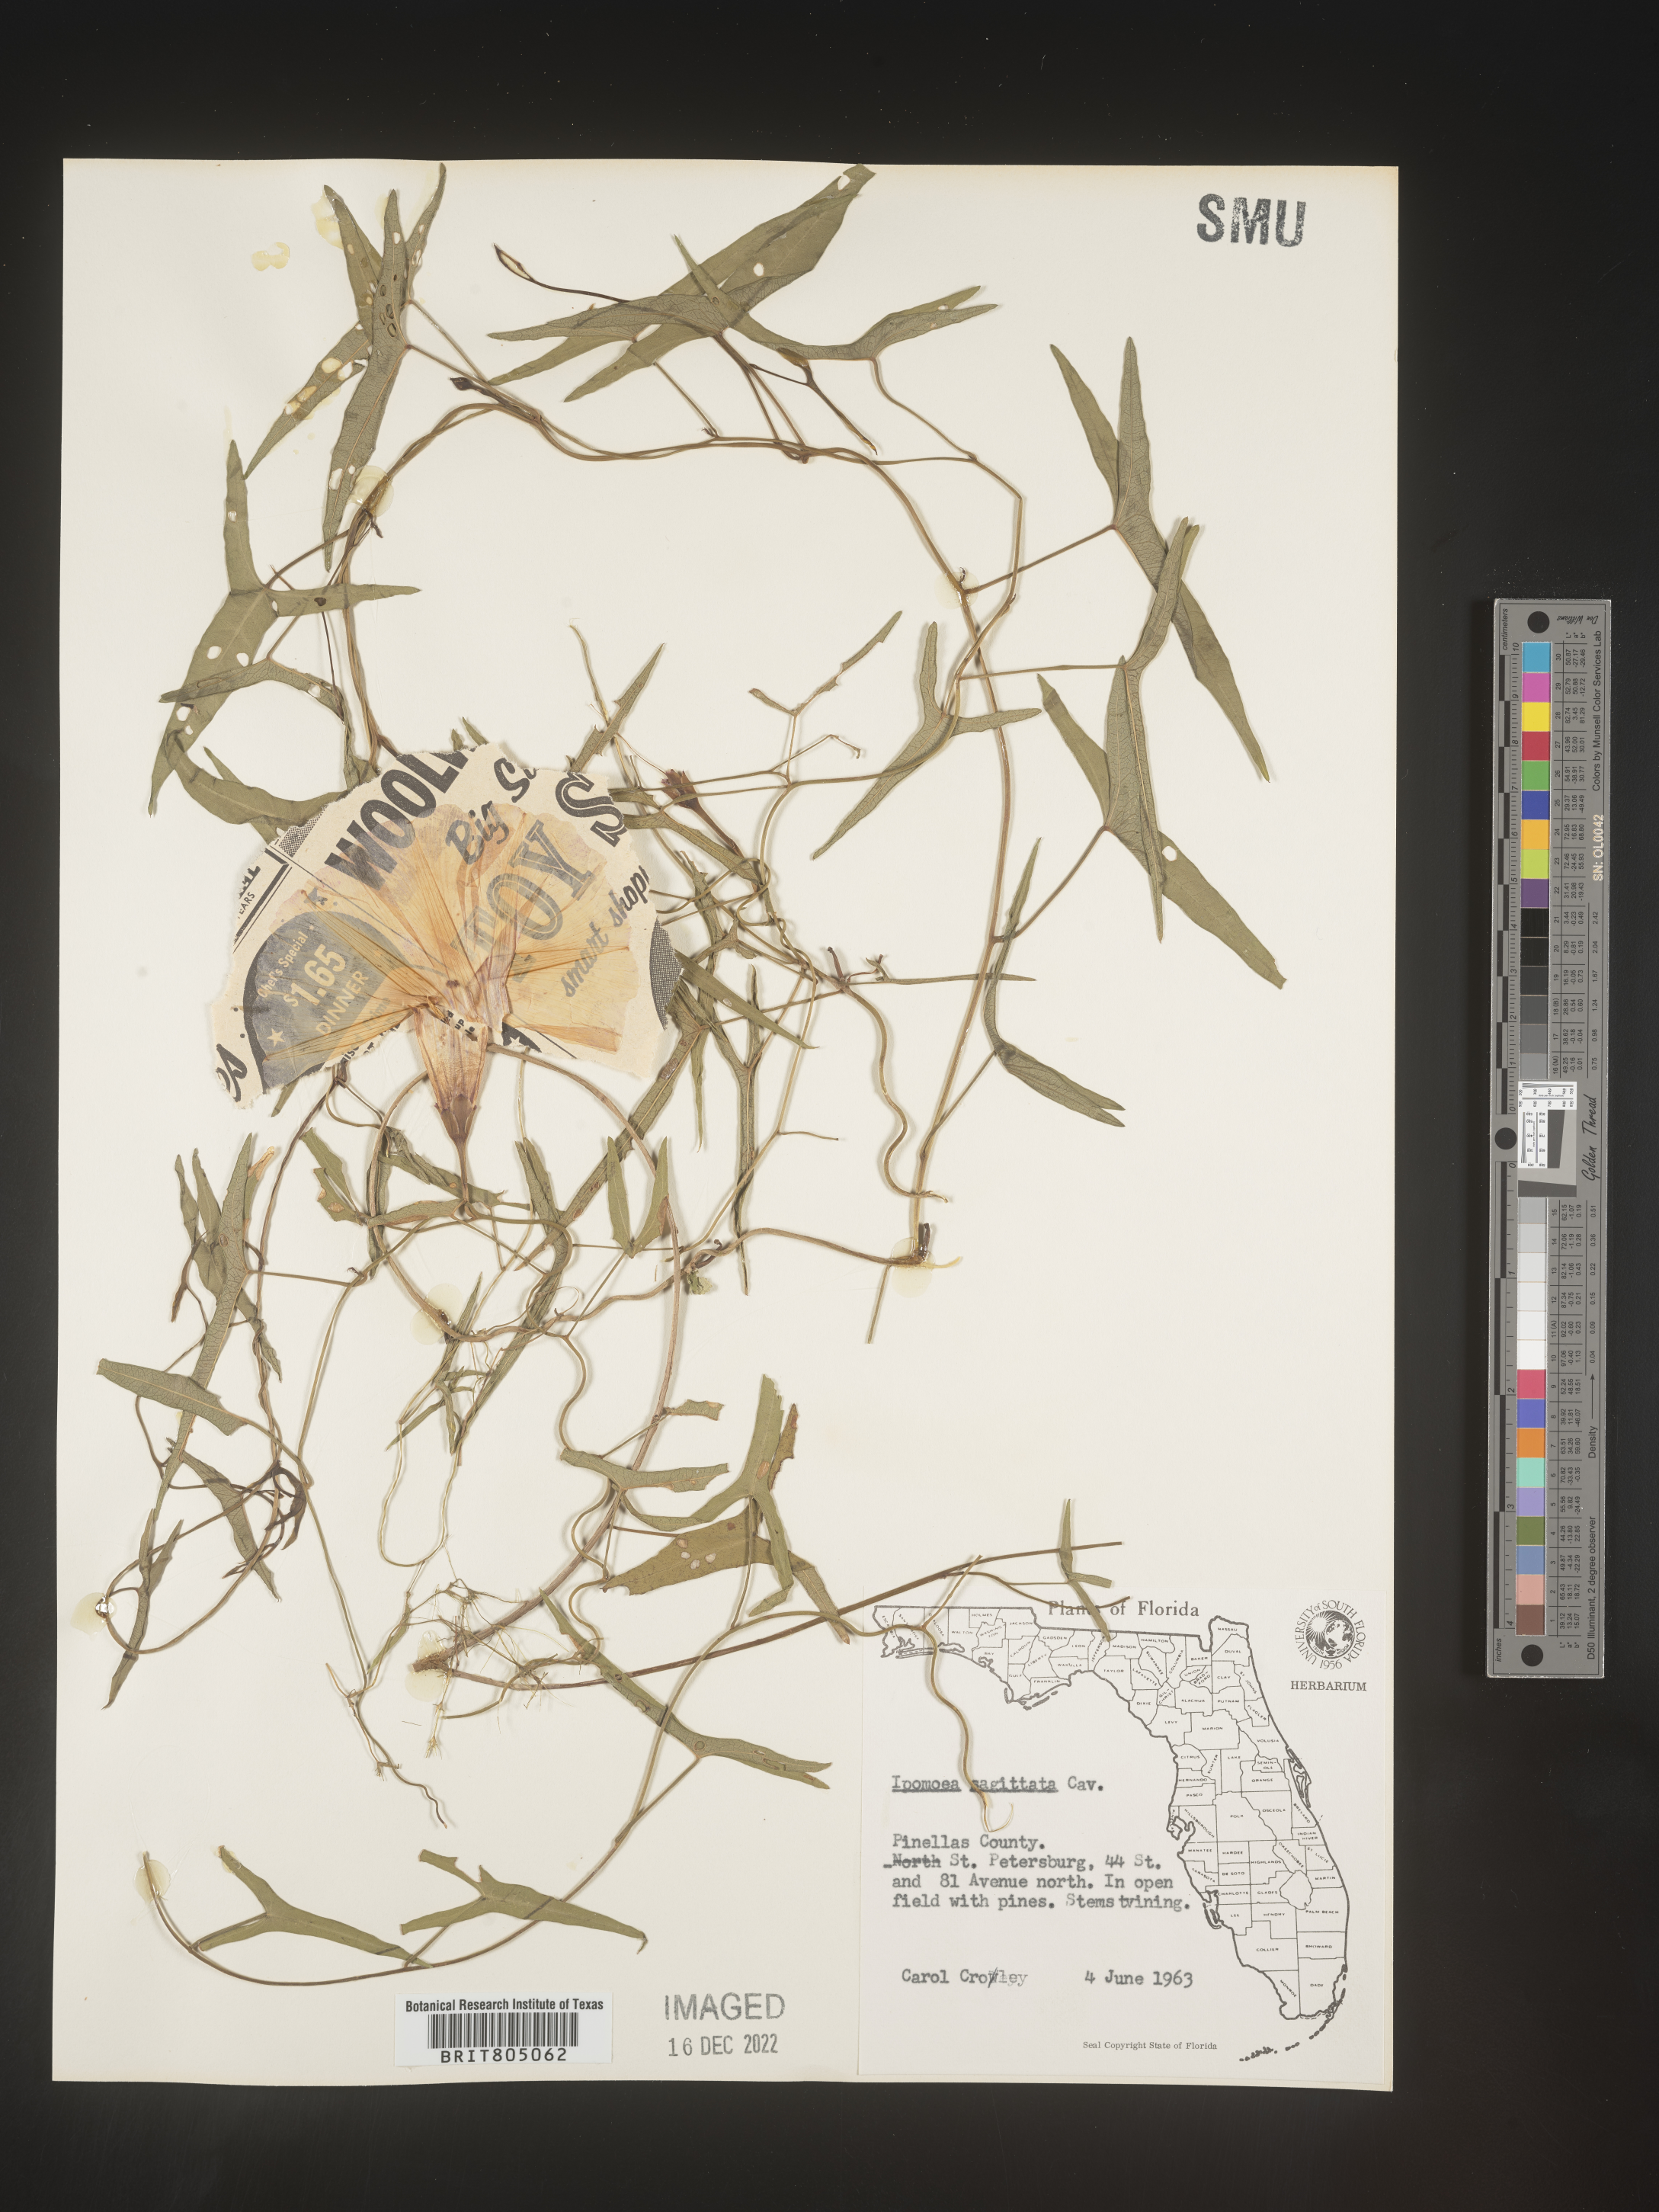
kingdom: Plantae
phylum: Tracheophyta
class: Magnoliopsida
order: Solanales
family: Convolvulaceae
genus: Ipomoea
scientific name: Ipomoea sinensis
